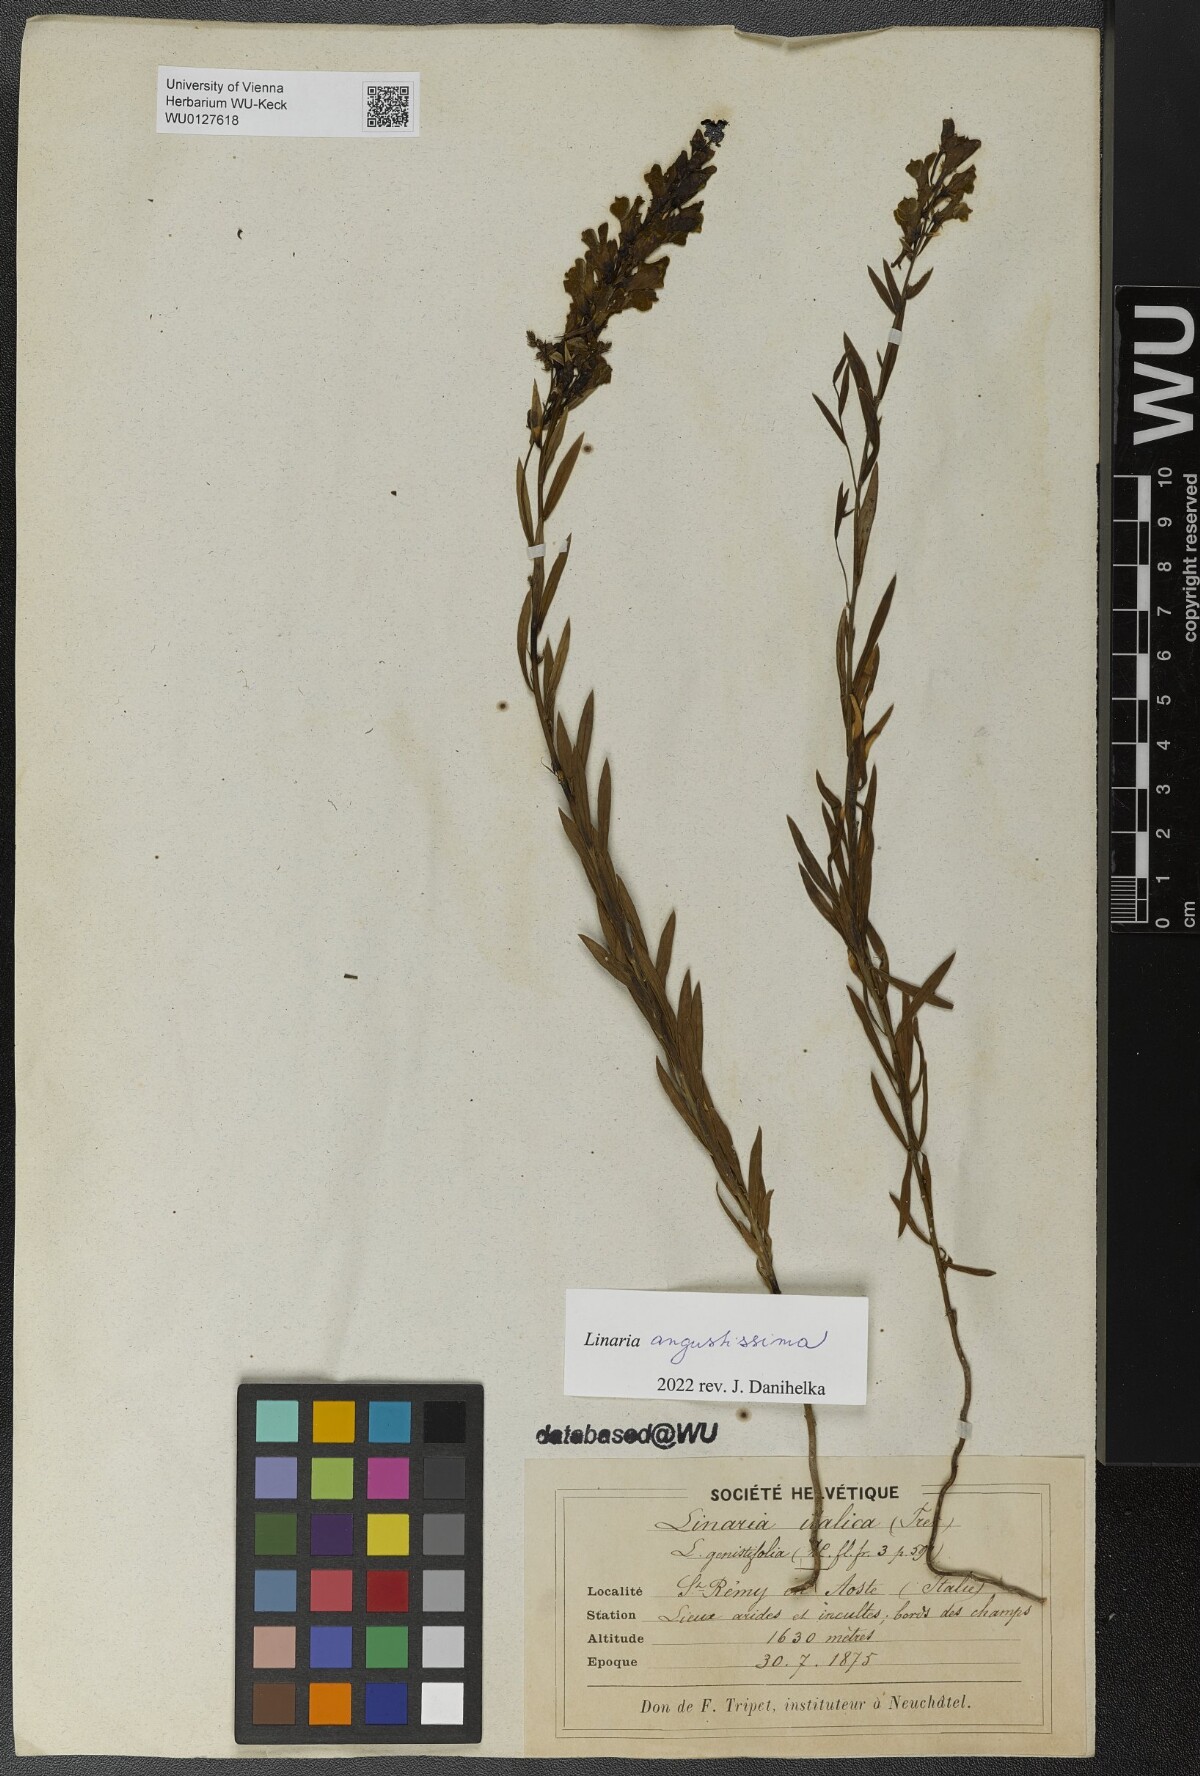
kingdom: Plantae
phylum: Tracheophyta
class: Magnoliopsida
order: Lamiales
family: Plantaginaceae
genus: Linaria
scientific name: Linaria angustissima
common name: Italian toadflax
